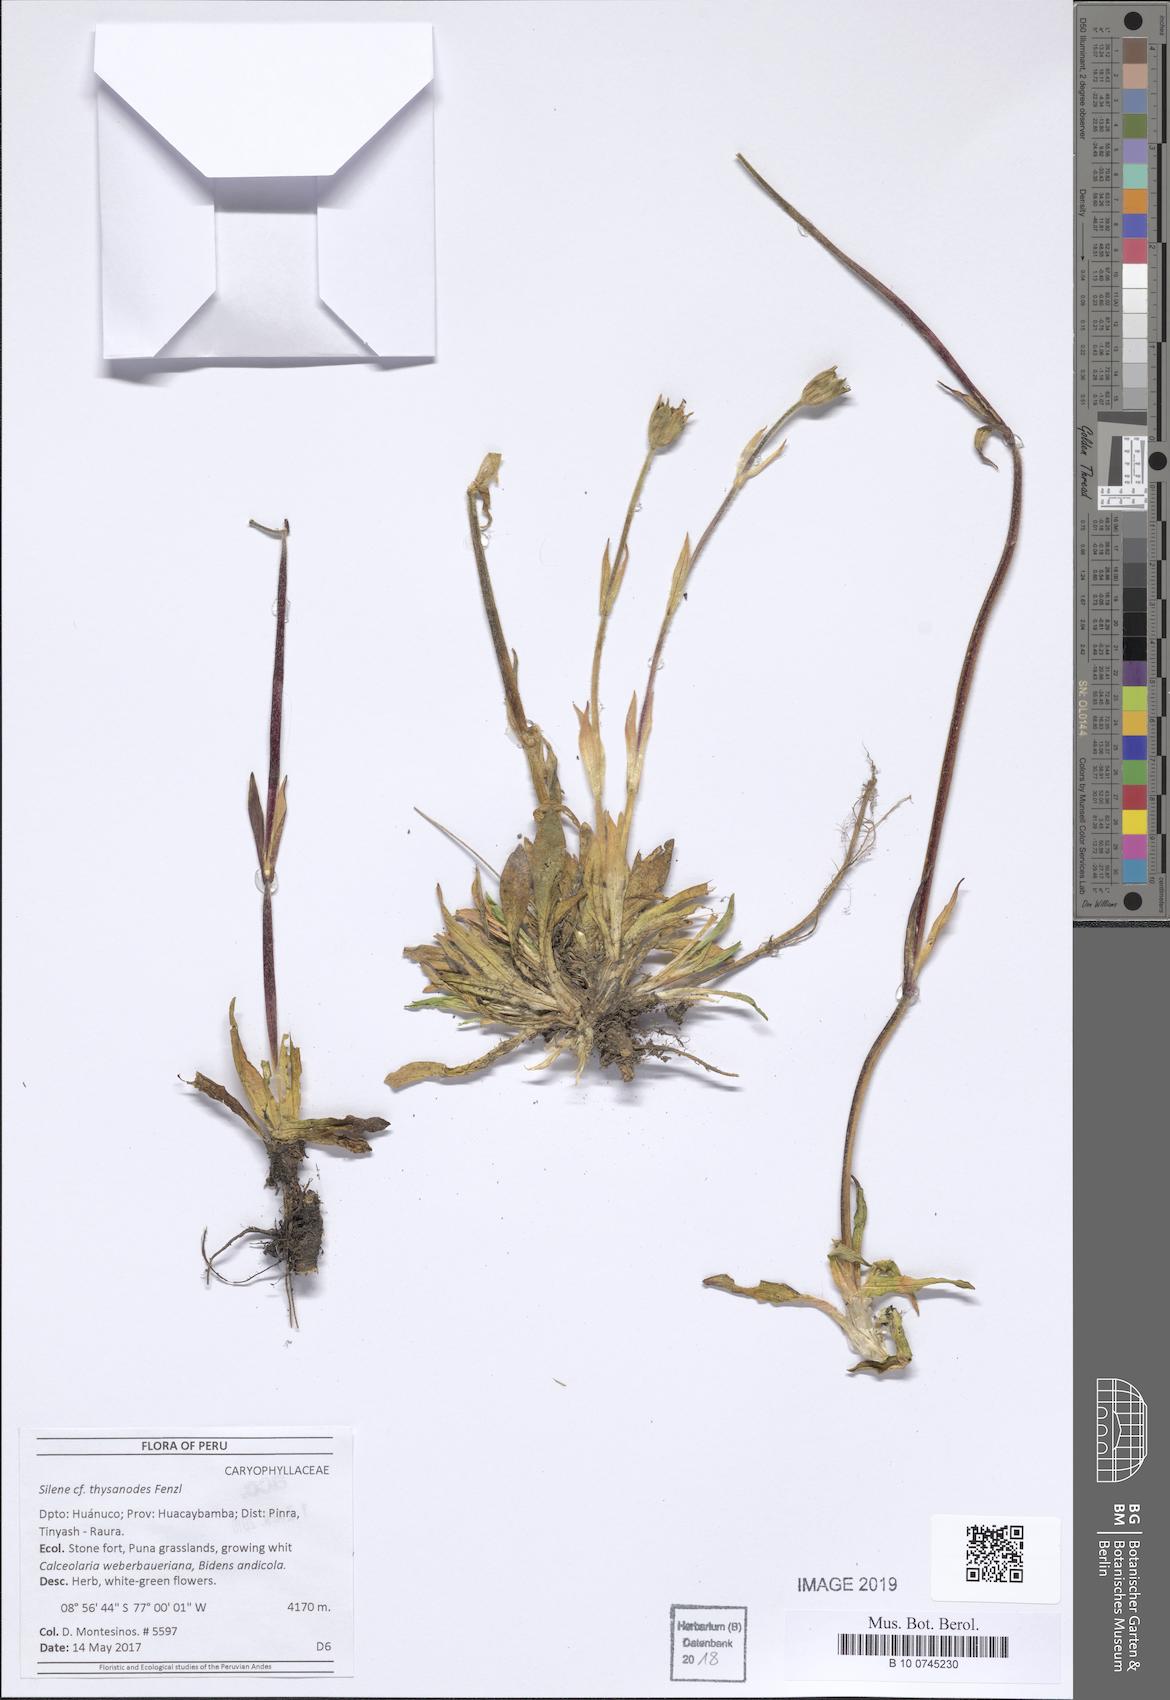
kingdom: Plantae
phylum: Tracheophyta
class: Magnoliopsida
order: Caryophyllales
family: Caryophyllaceae
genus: Silene
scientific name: Silene thysanodes
